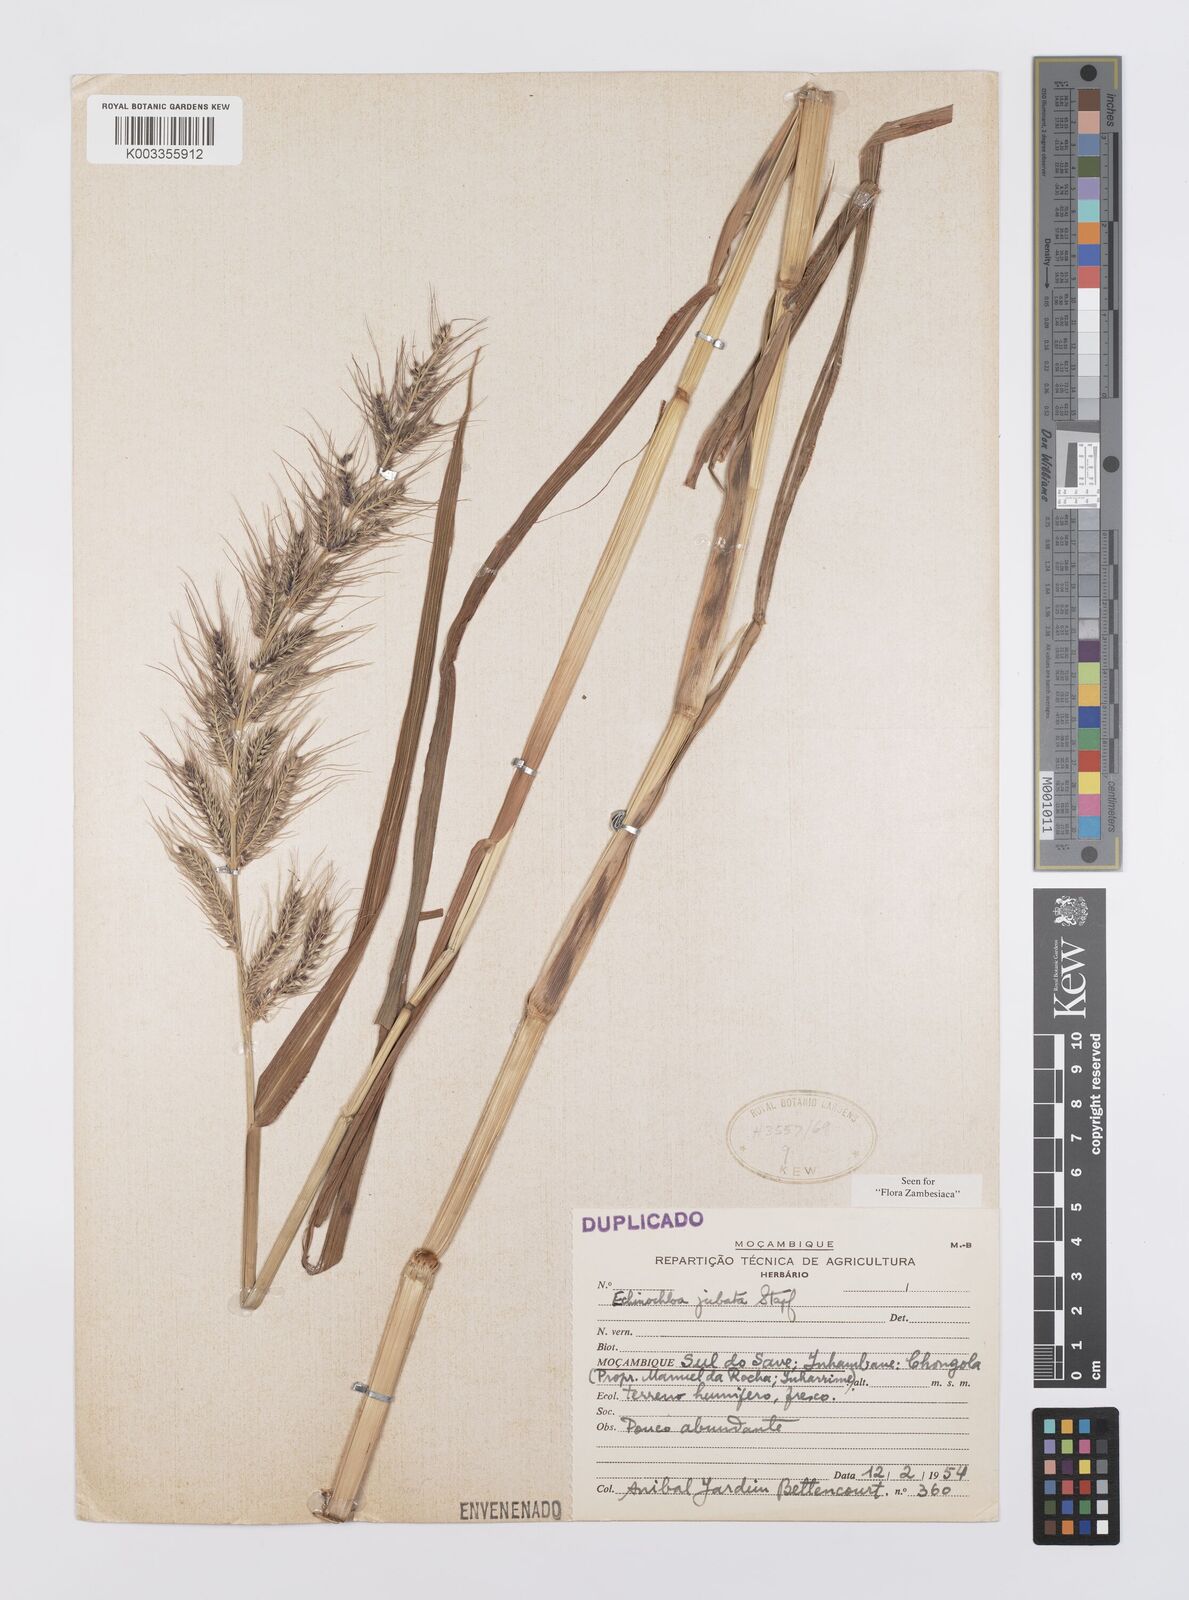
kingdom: Plantae
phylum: Tracheophyta
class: Liliopsida
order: Poales
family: Poaceae
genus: Echinochloa
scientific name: Echinochloa jubata
